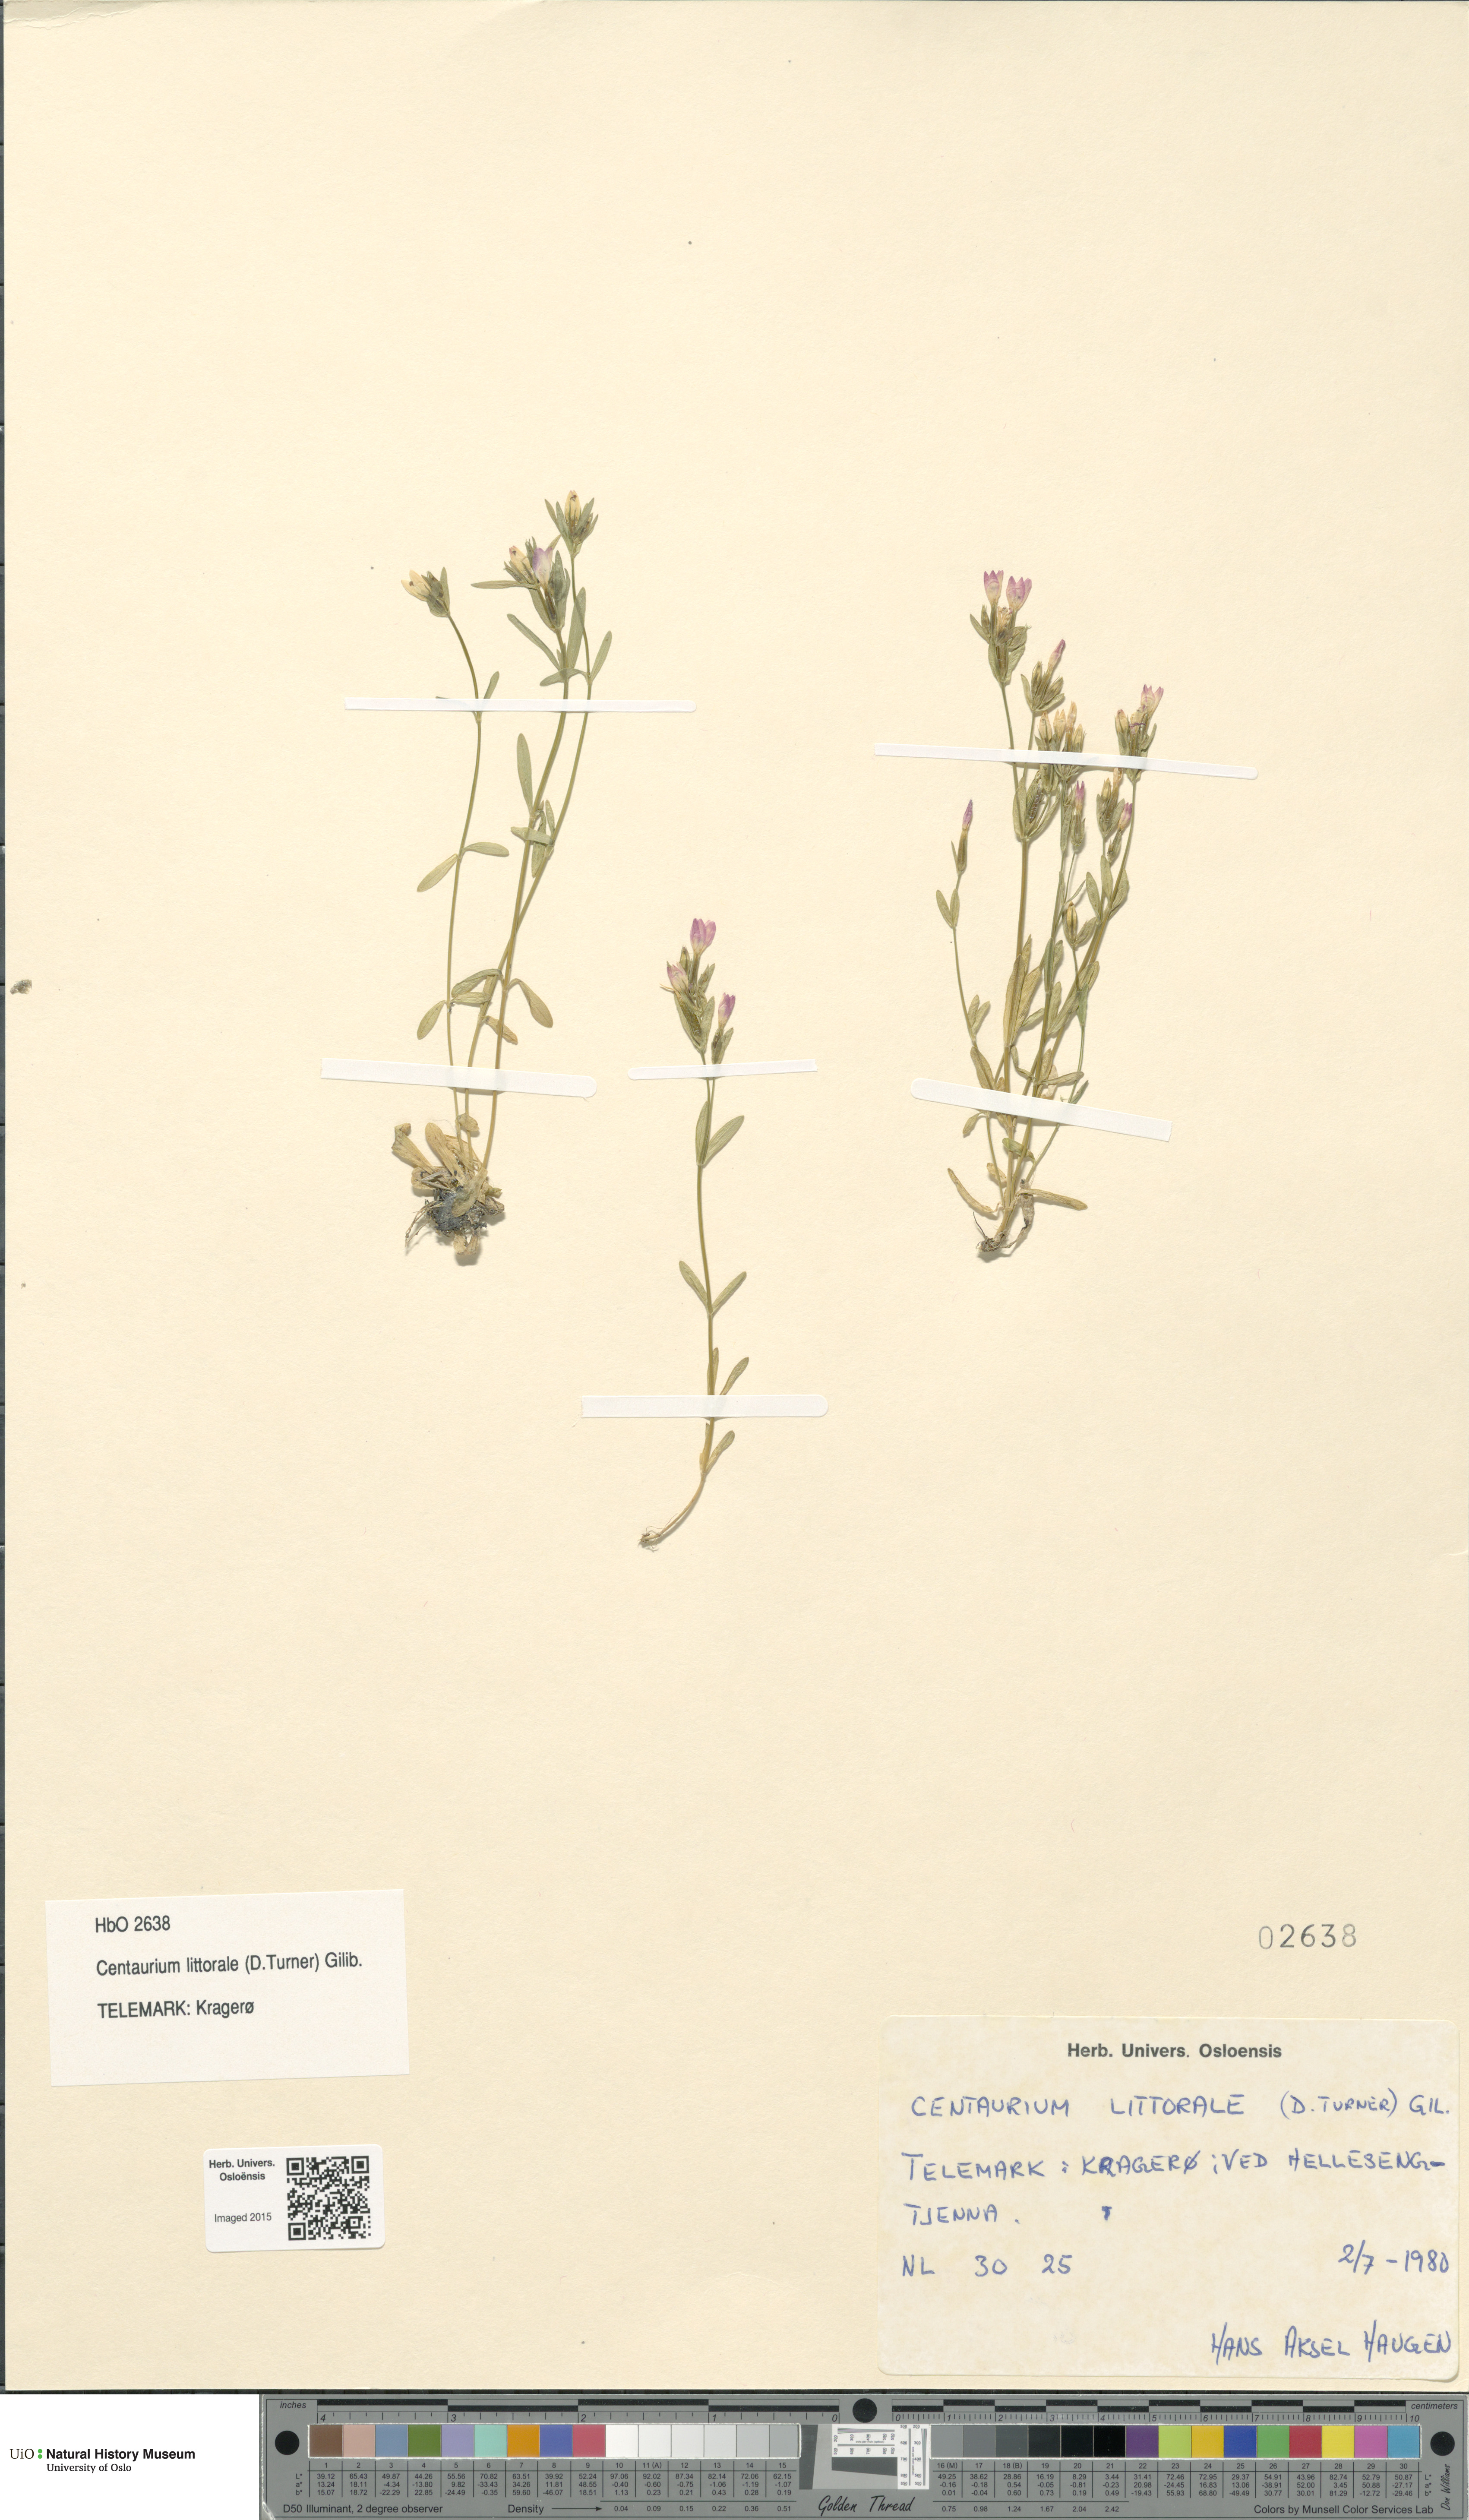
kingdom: Plantae
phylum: Tracheophyta
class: Magnoliopsida
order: Gentianales
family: Gentianaceae
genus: Centaurium
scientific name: Centaurium littorale
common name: Seaside centaury
